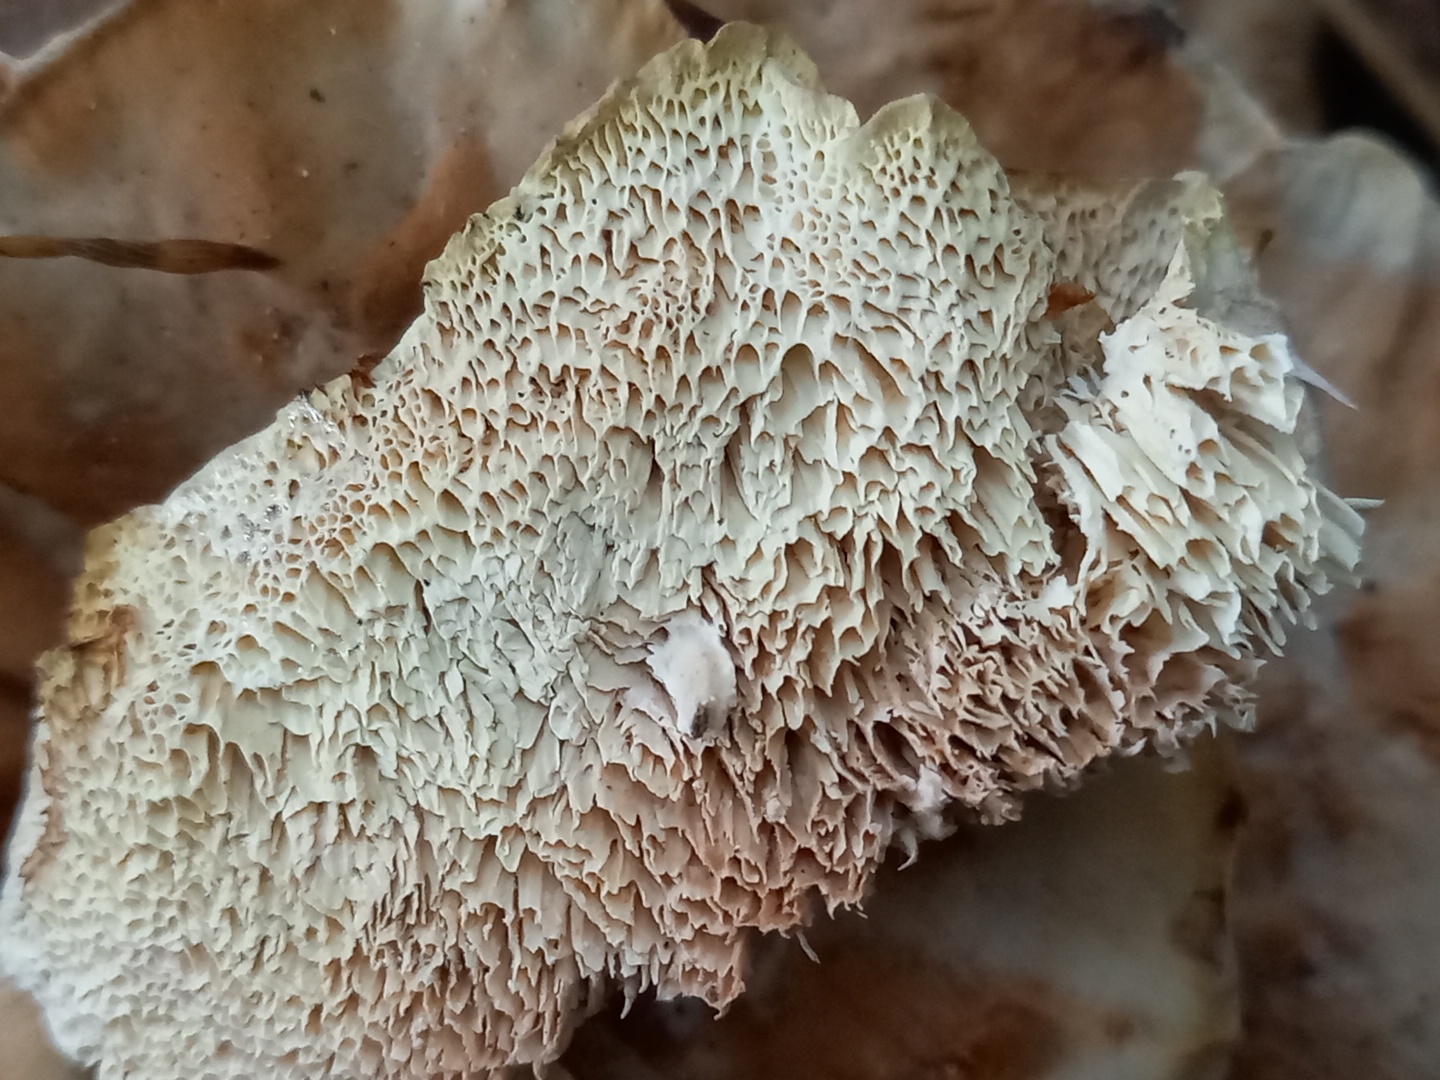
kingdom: Fungi
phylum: Basidiomycota
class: Agaricomycetes
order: Polyporales
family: Podoscyphaceae
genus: Abortiporus
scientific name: Abortiporus biennis
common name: rødmende pjalteporesvamp
